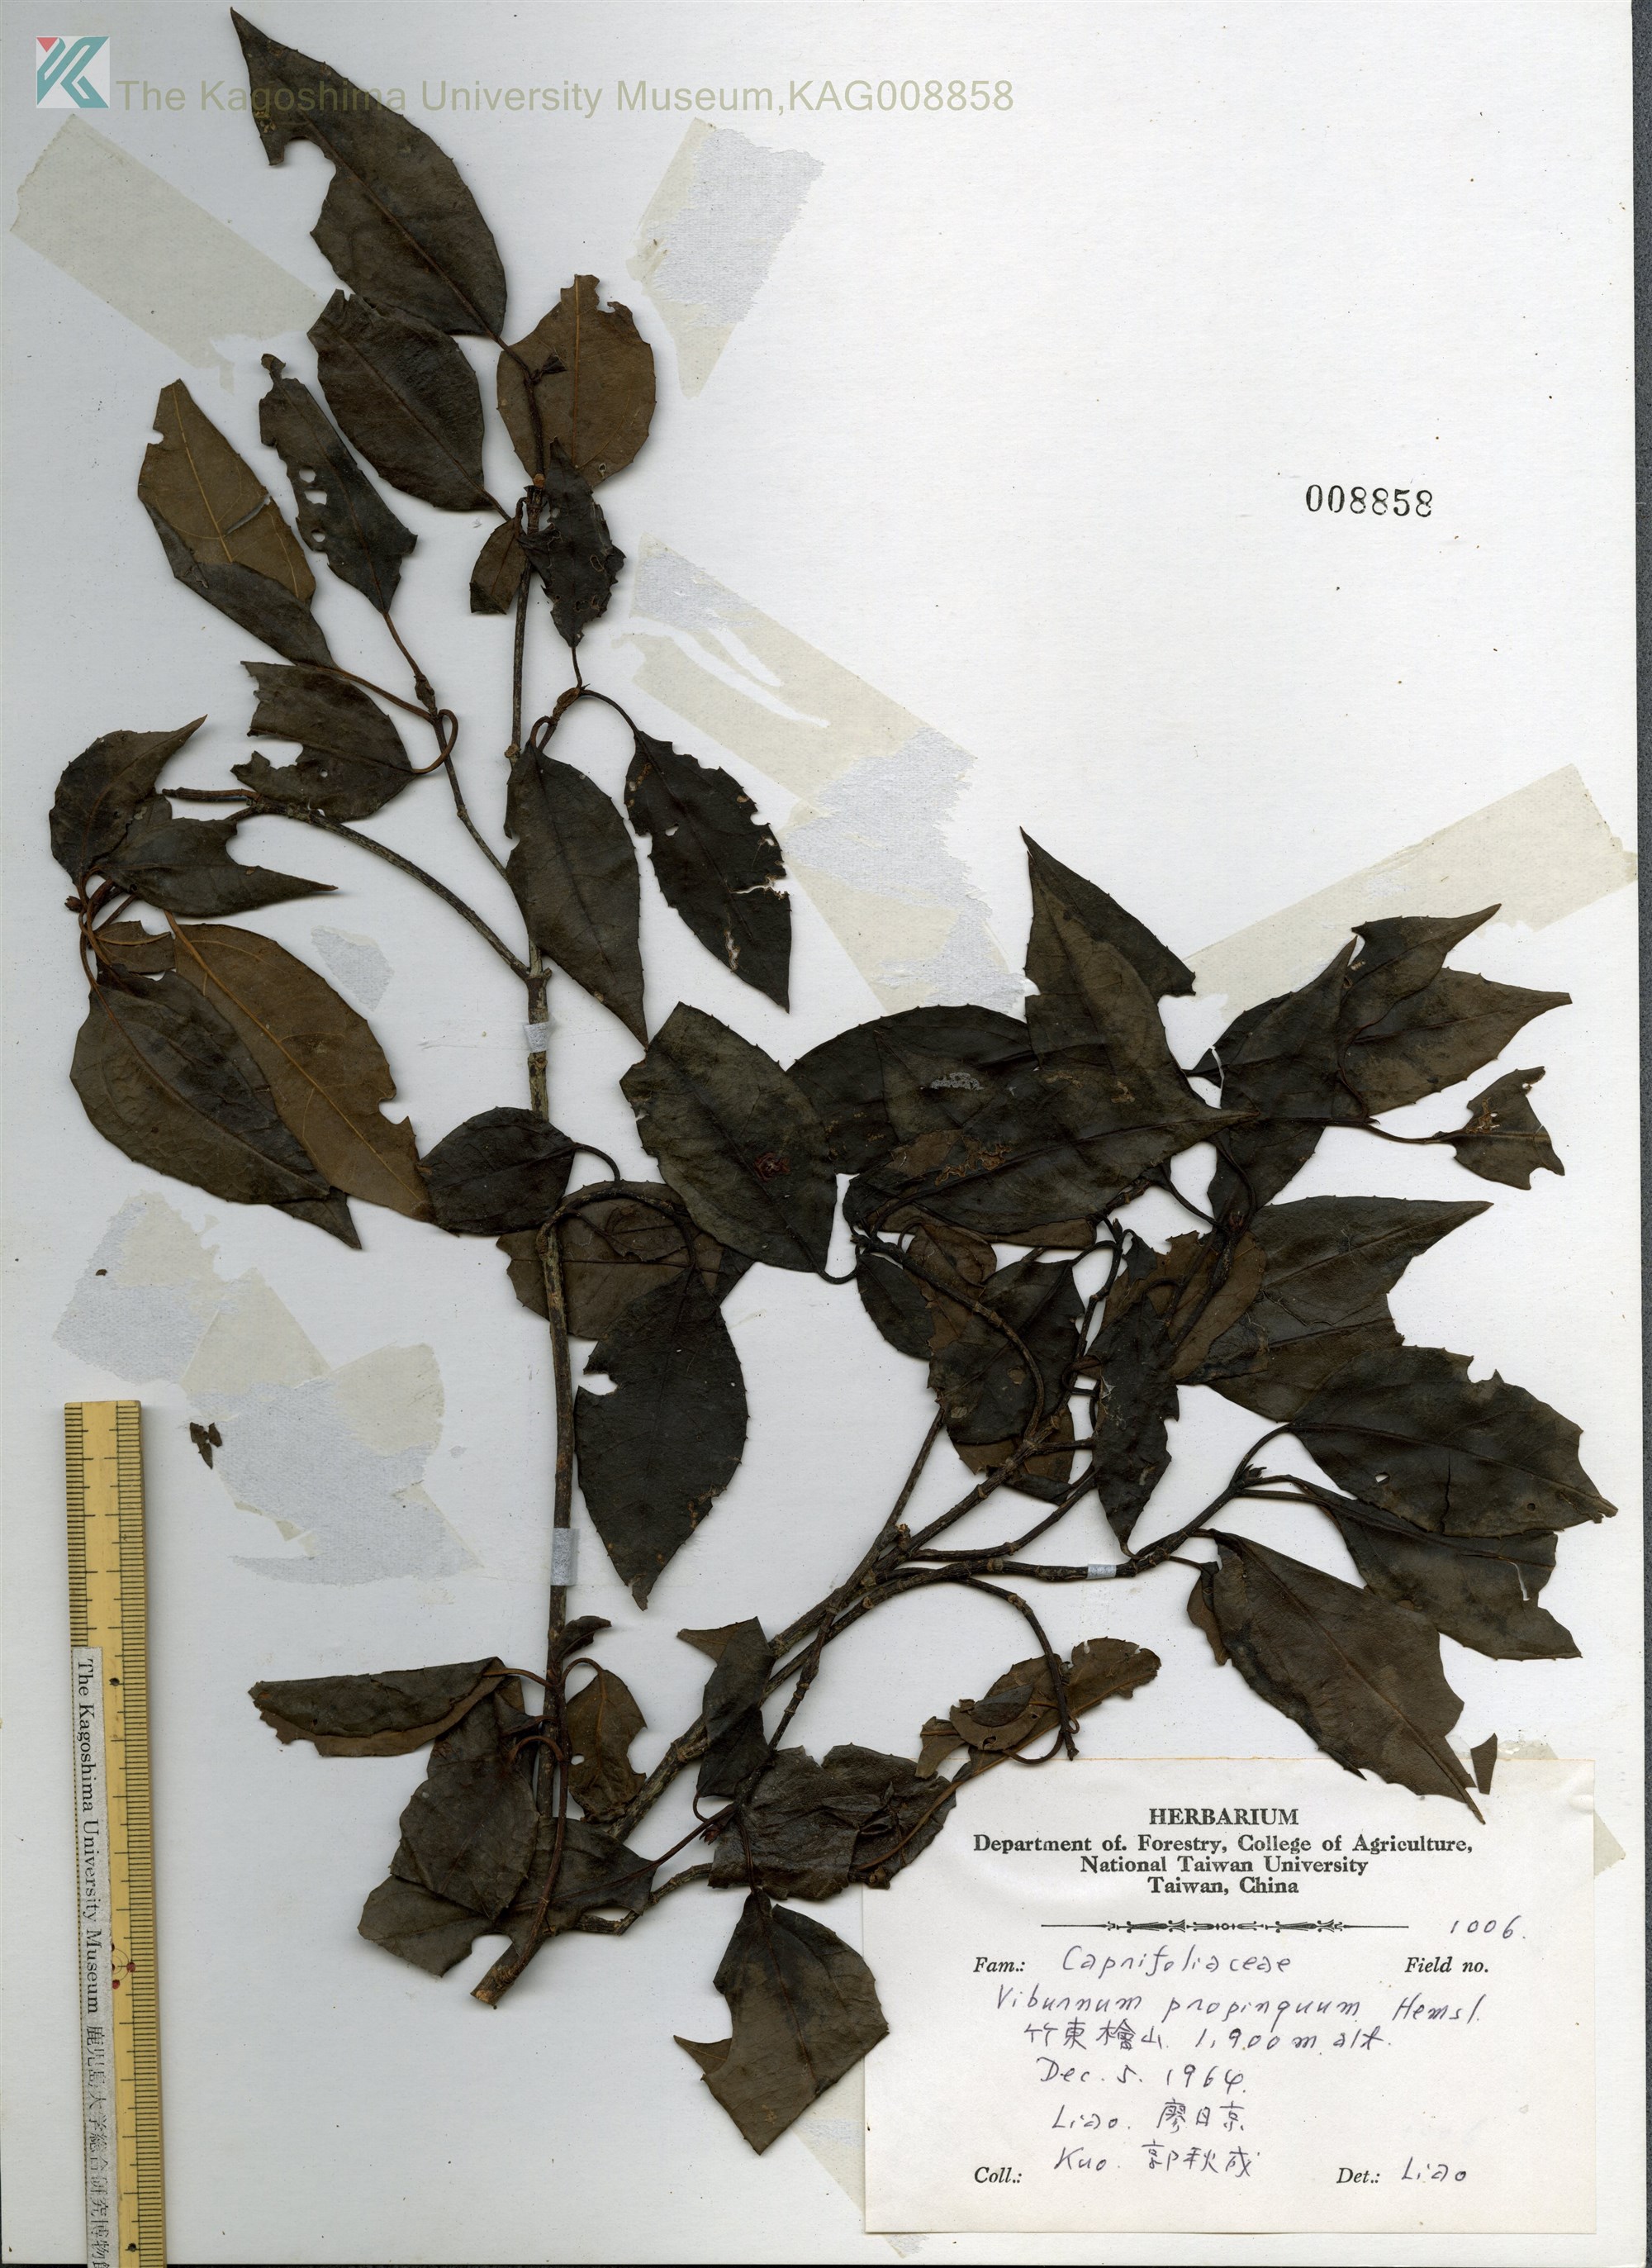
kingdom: Plantae
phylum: Tracheophyta
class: Magnoliopsida
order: Dipsacales
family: Viburnaceae
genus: Viburnum
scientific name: Viburnum propinquum
